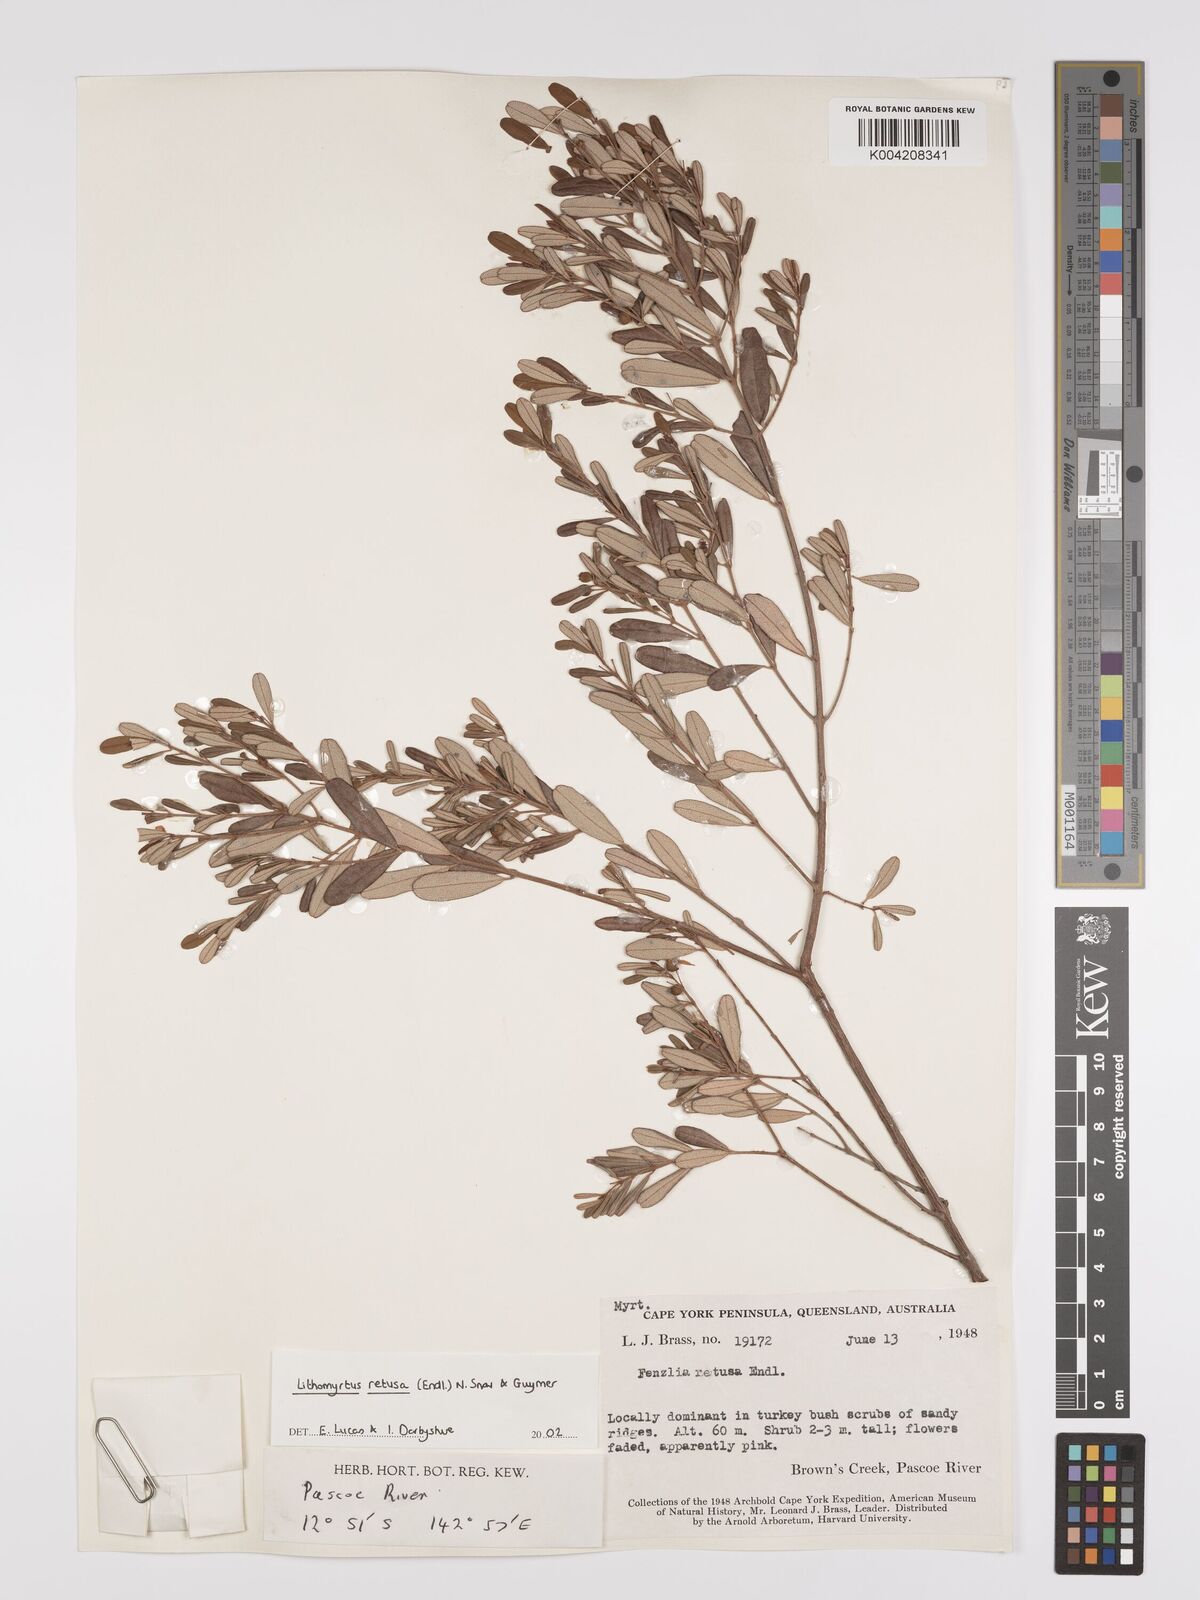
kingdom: Plantae
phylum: Tracheophyta
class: Magnoliopsida
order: Myrtales
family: Myrtaceae
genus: Lithomyrtus
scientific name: Lithomyrtus retusa
